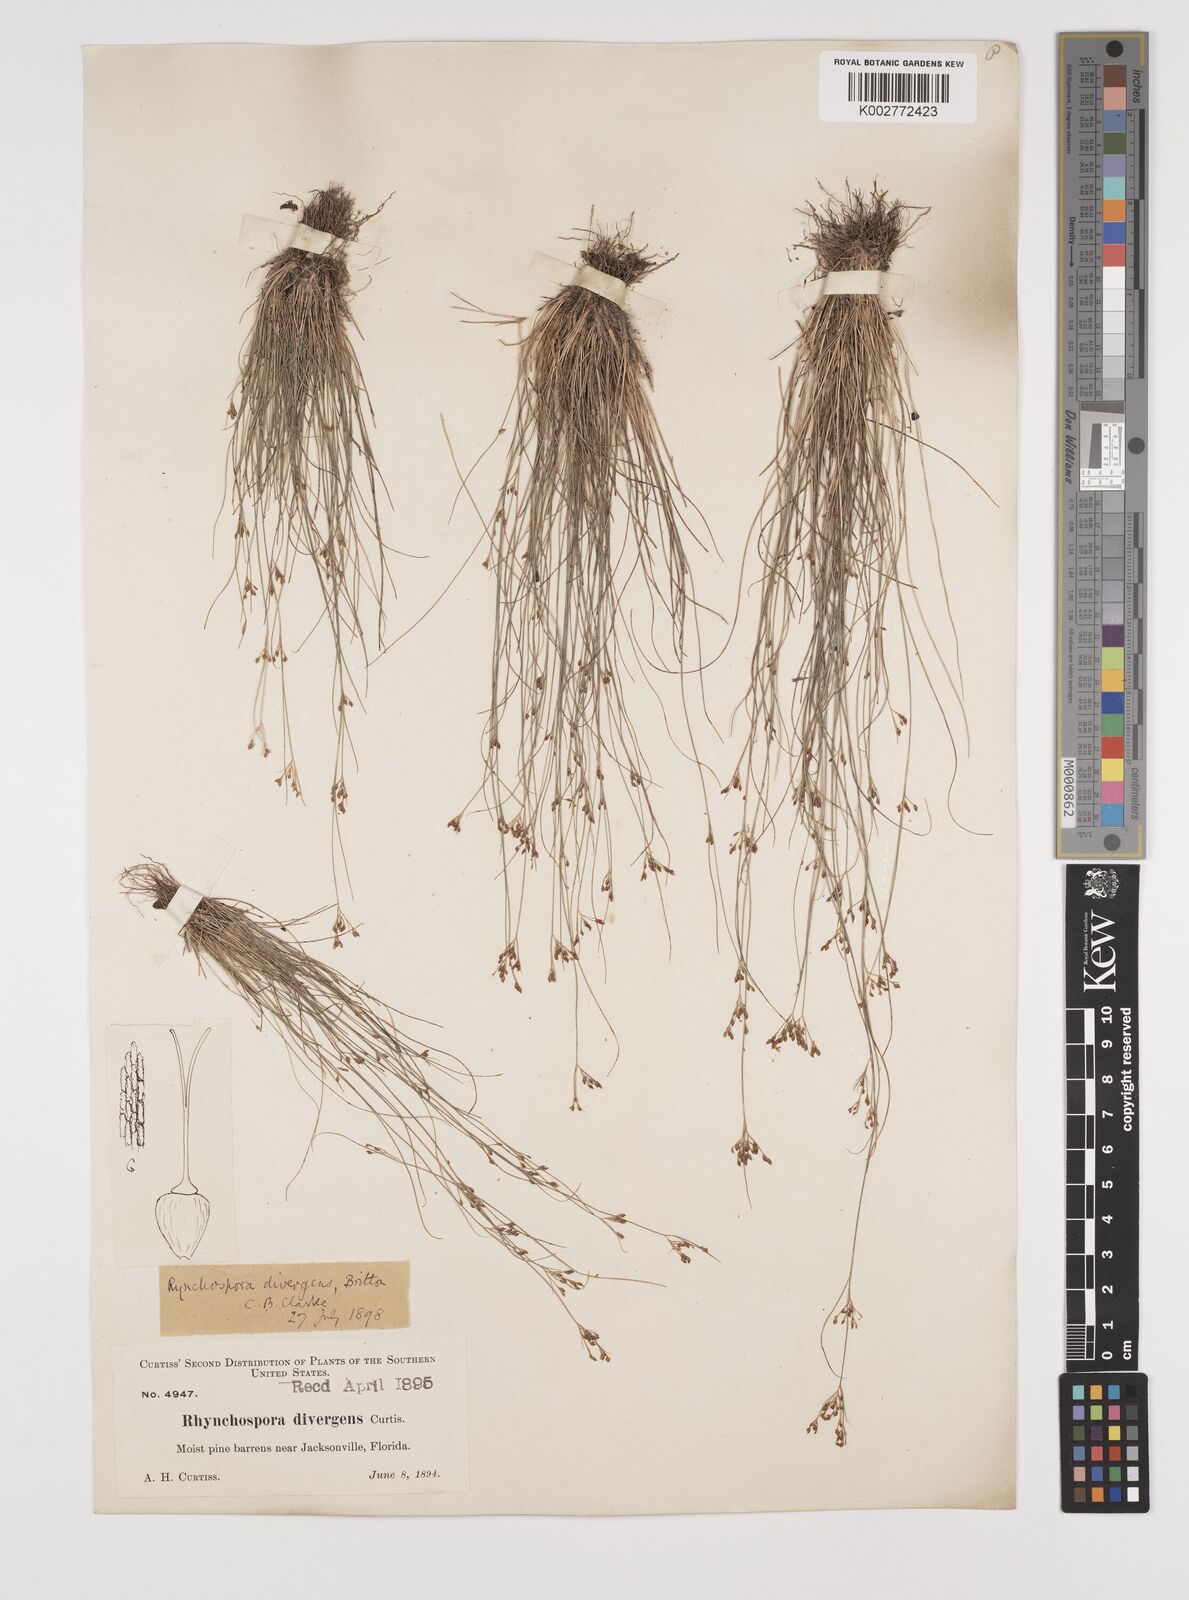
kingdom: Plantae
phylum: Tracheophyta
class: Liliopsida
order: Poales
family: Cyperaceae
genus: Rhynchospora
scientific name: Rhynchospora divergens
